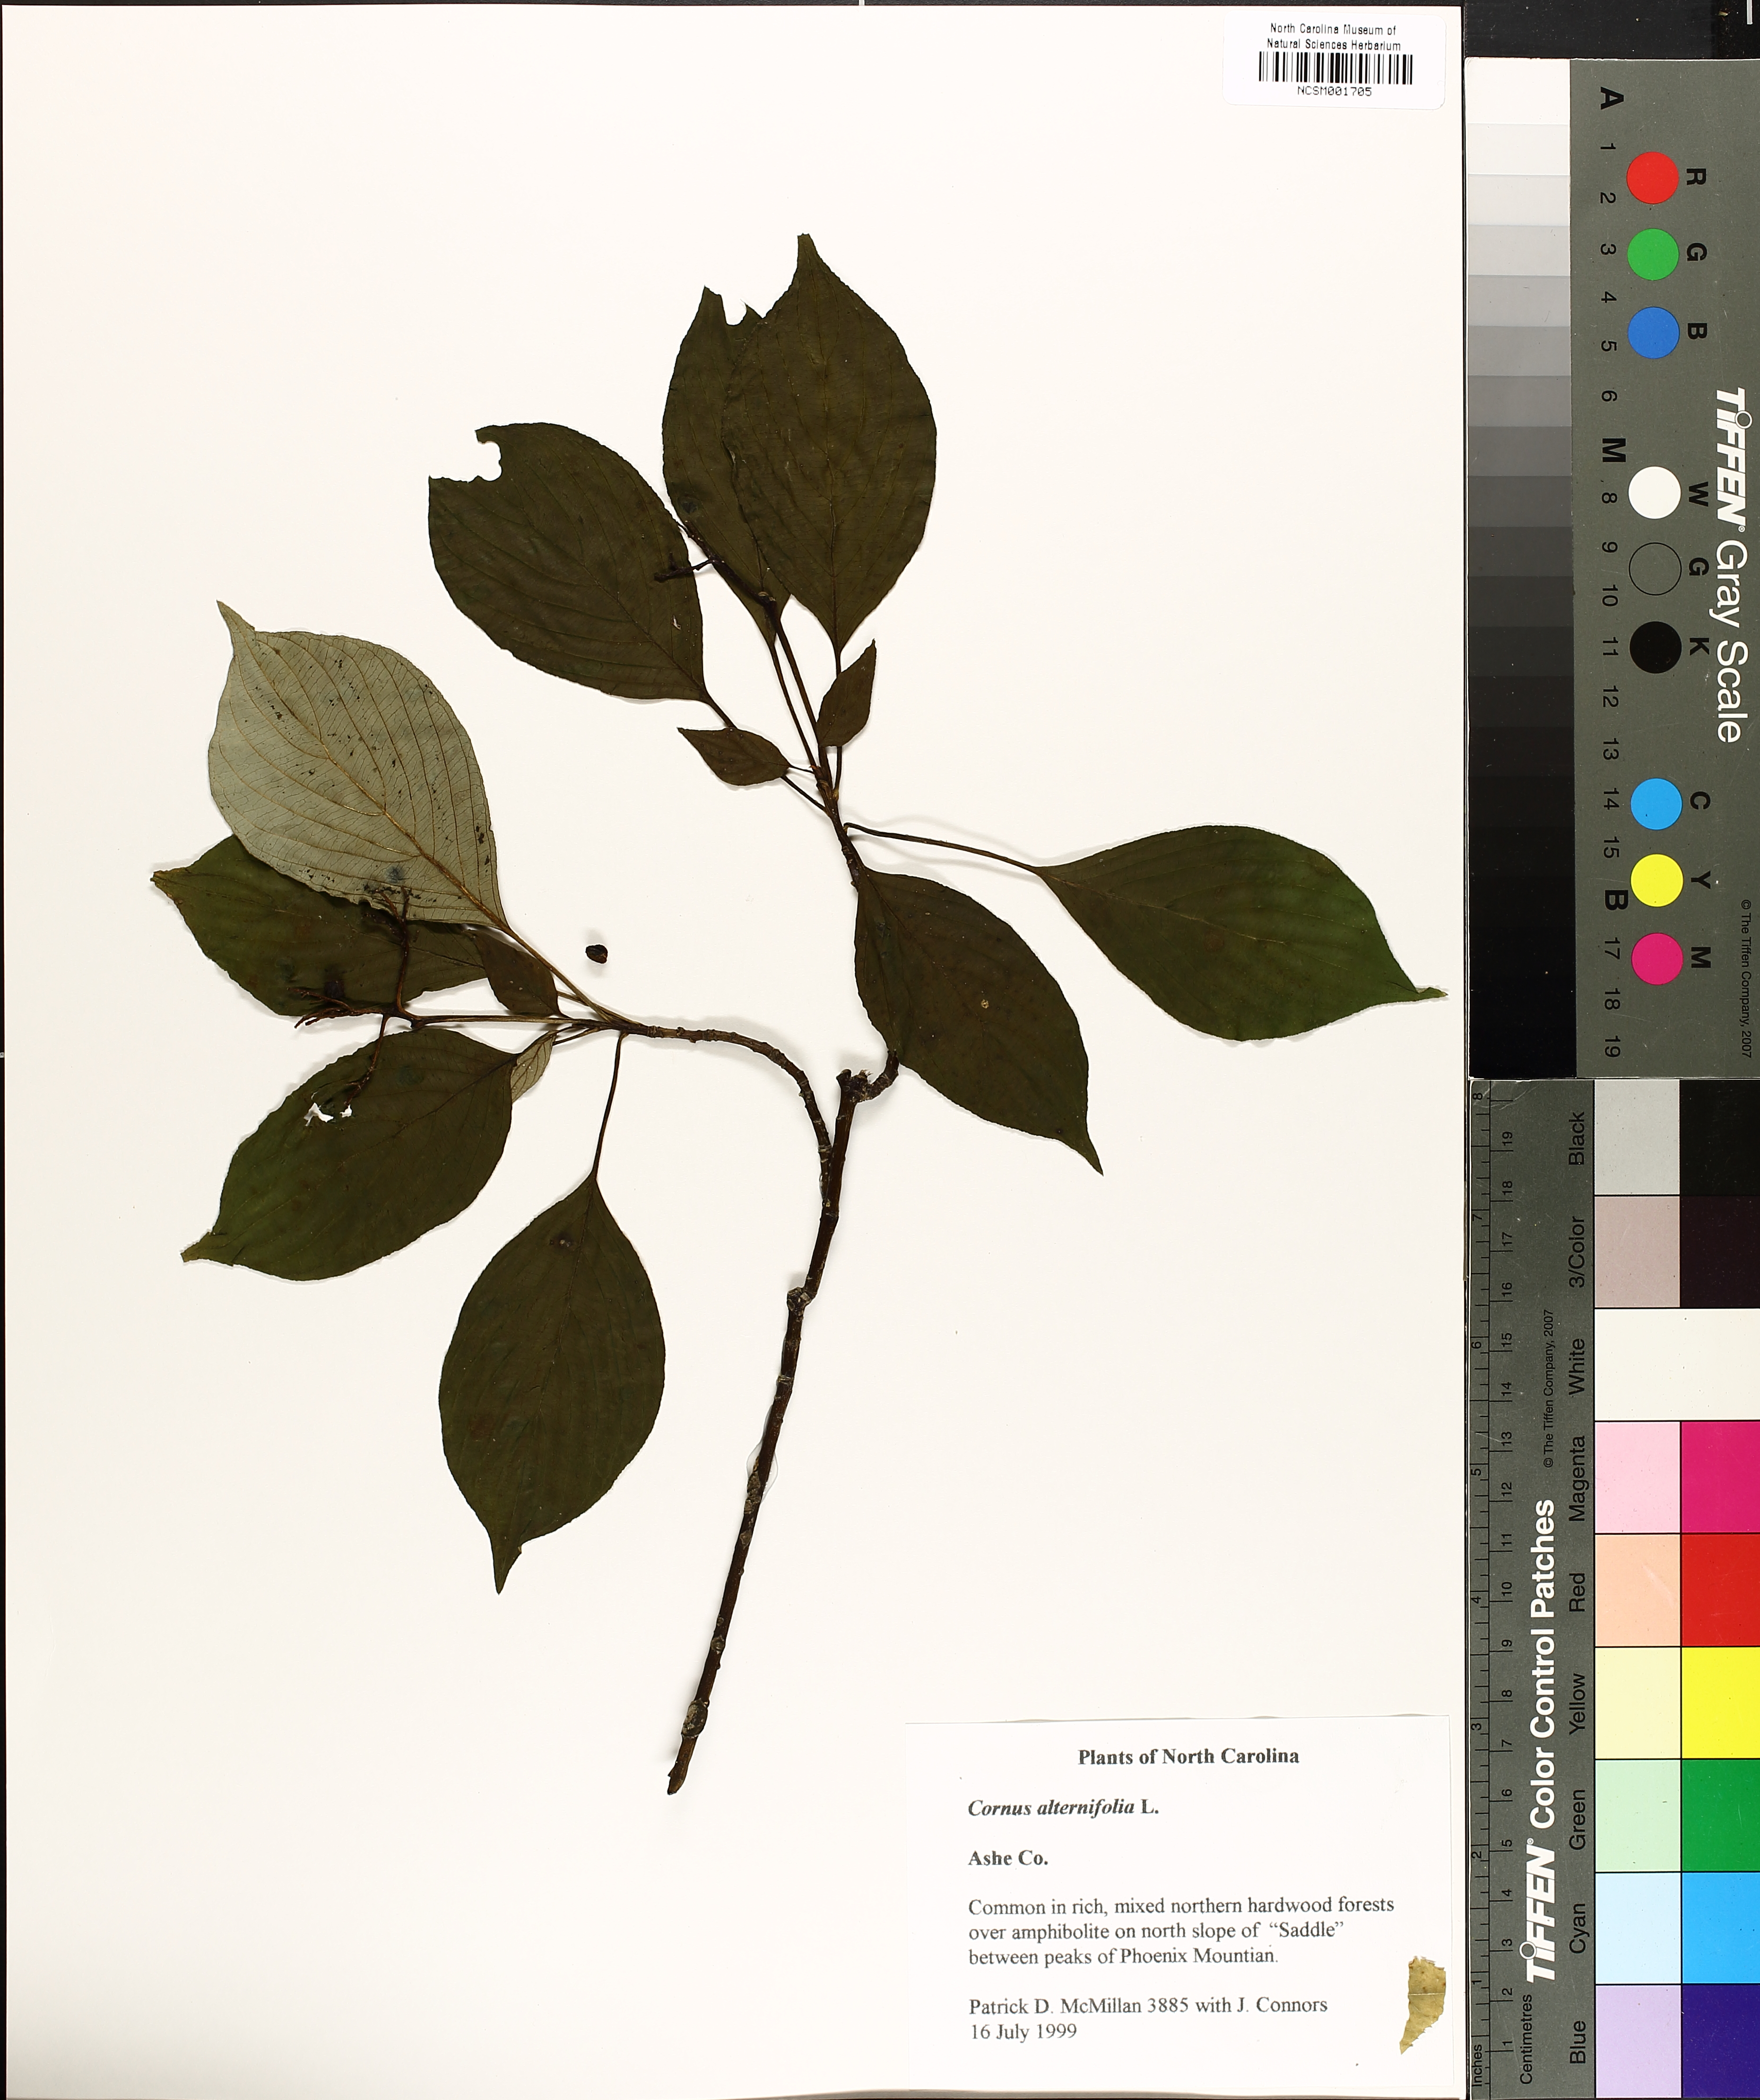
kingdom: Plantae
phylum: Tracheophyta
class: Magnoliopsida
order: Cornales
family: Cornaceae
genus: Cornus
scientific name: Cornus alternifolia
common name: Pagoda dogwood
